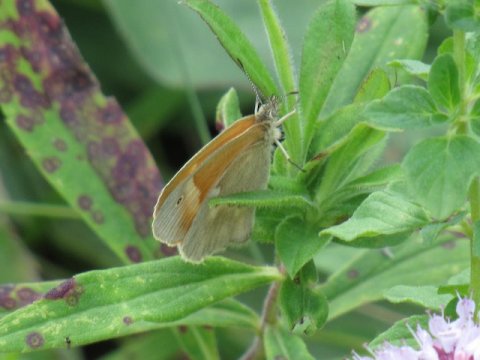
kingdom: Animalia
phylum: Arthropoda
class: Insecta
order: Lepidoptera
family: Nymphalidae
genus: Coenonympha
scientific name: Coenonympha tullia
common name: Large Heath
